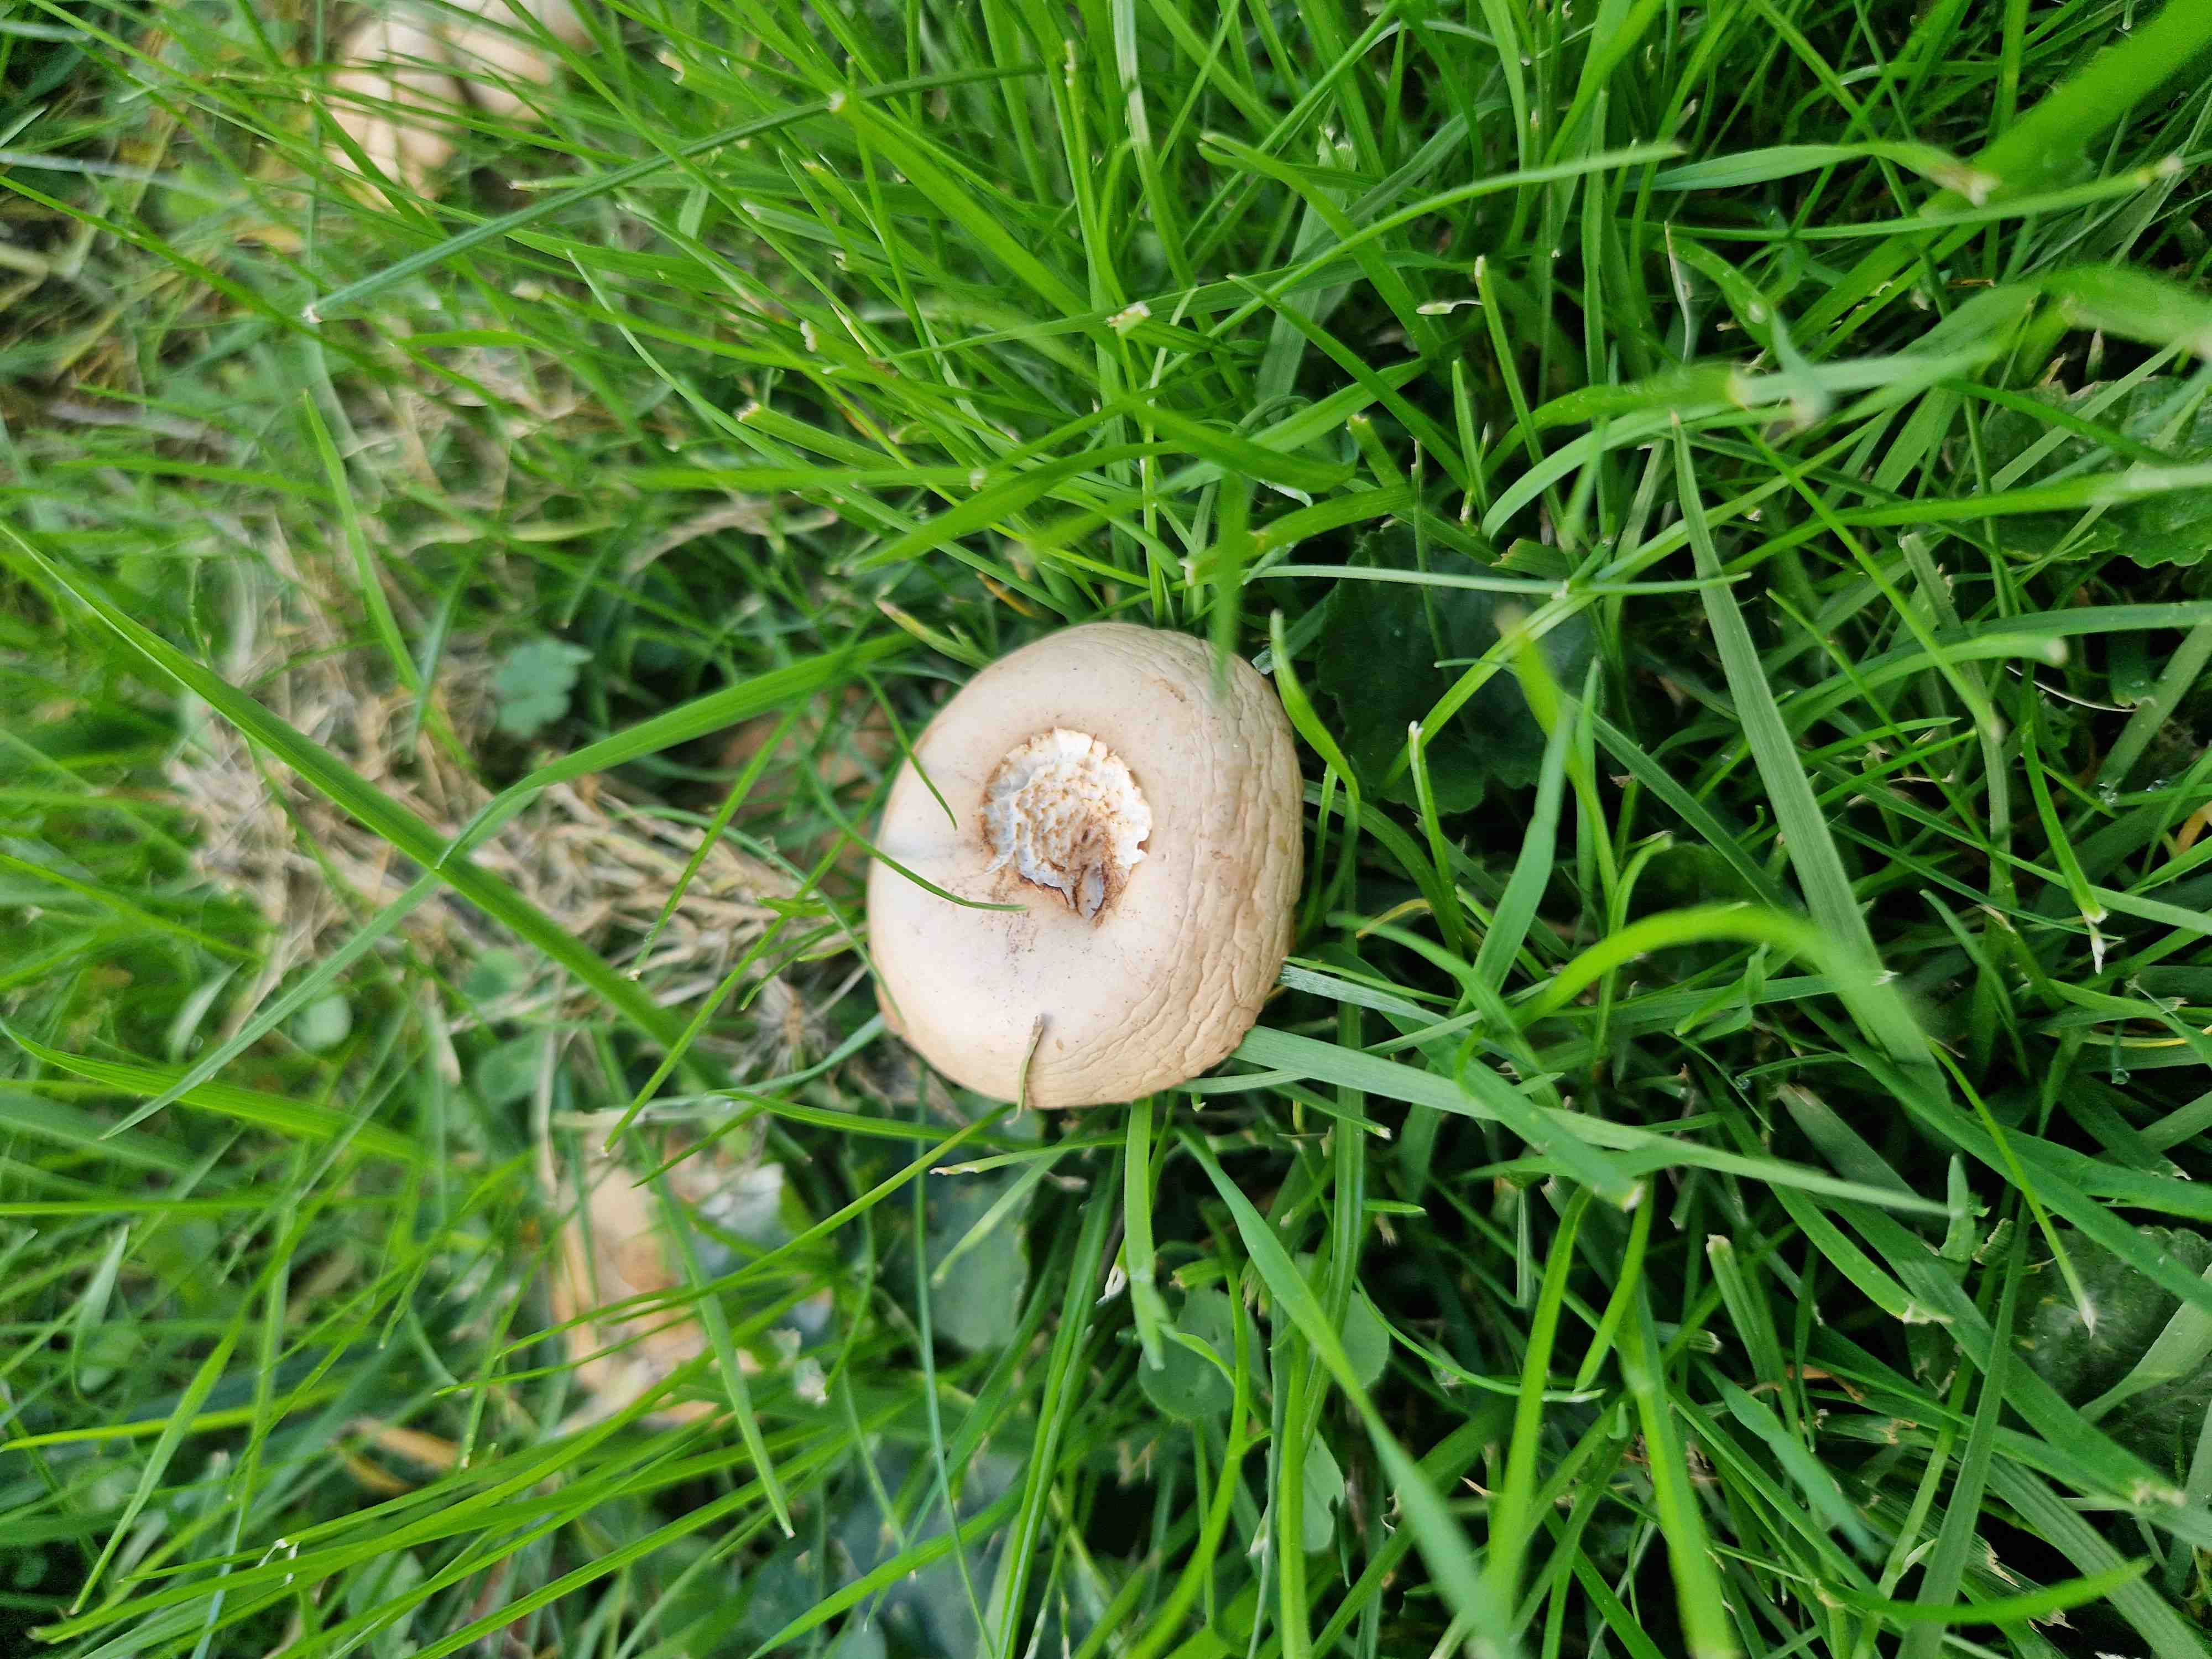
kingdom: Fungi
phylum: Basidiomycota
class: Agaricomycetes
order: Agaricales
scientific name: Agaricales
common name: champignonordenen
